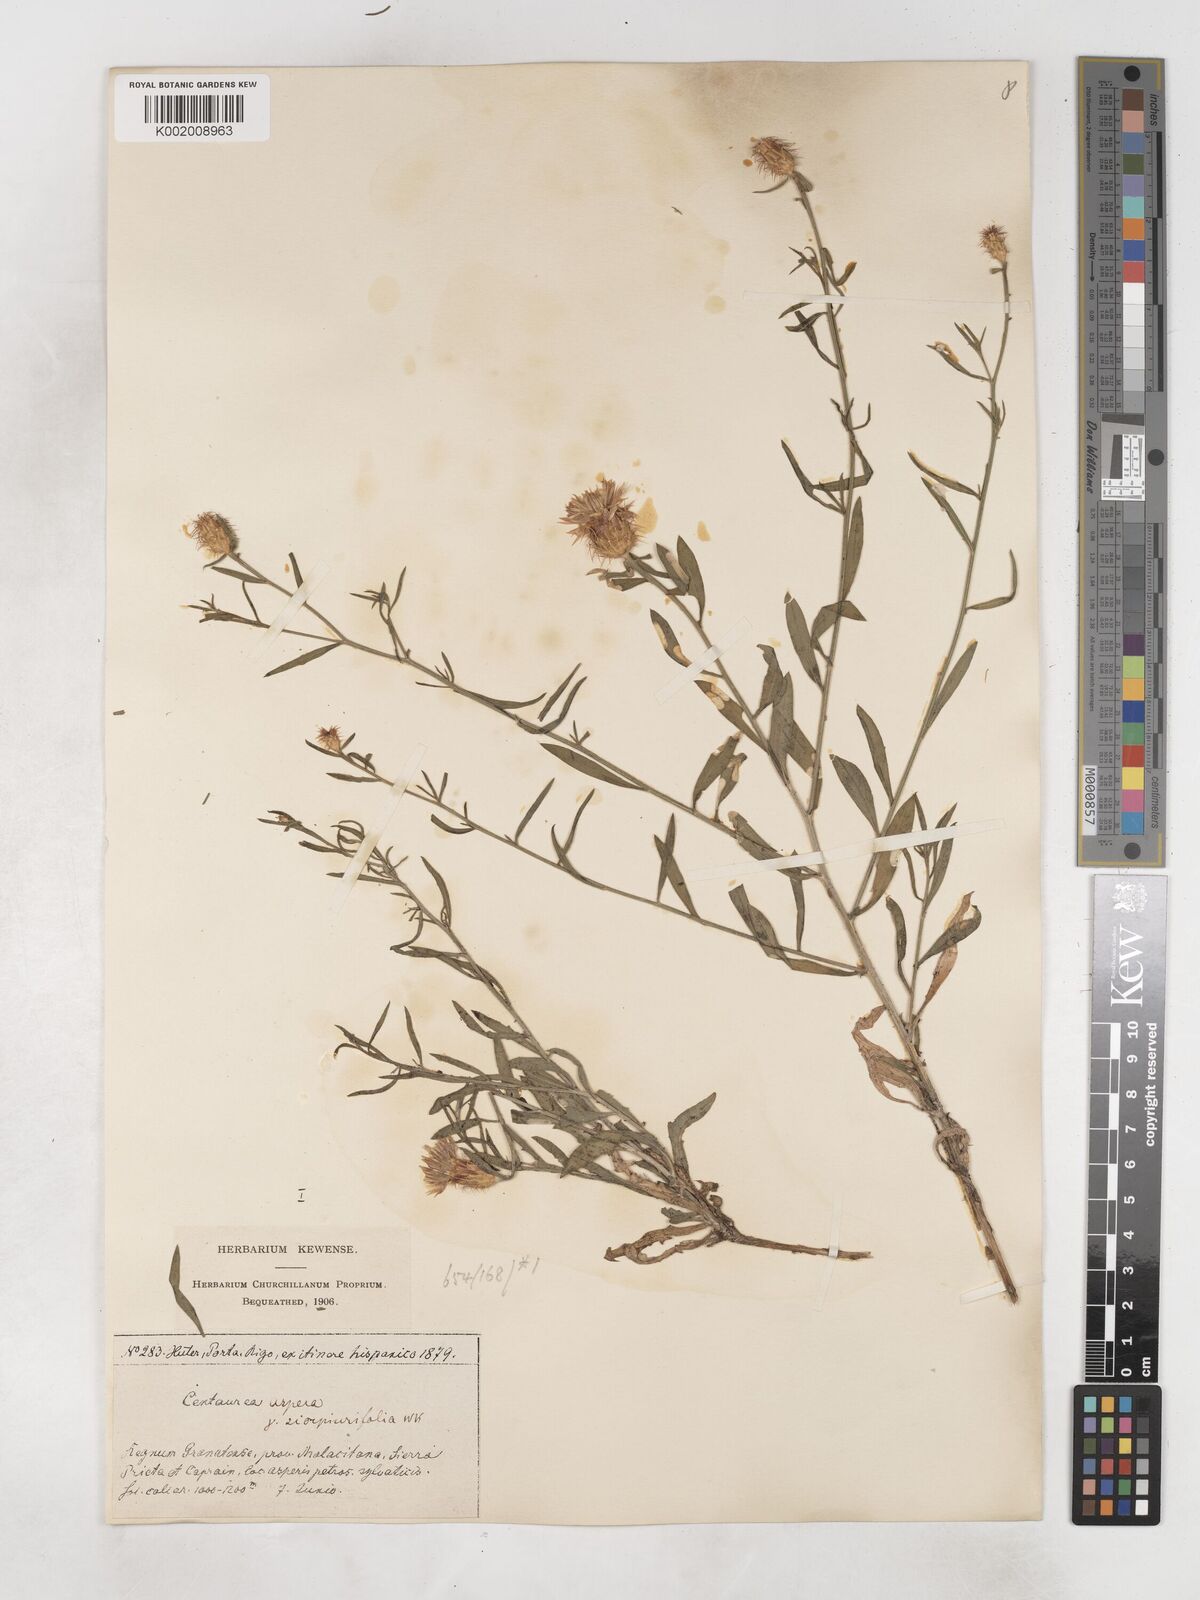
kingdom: Plantae
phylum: Tracheophyta
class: Magnoliopsida
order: Asterales
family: Asteraceae
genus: Centaurea
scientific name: Centaurea aspera
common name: Rough star-thistle
